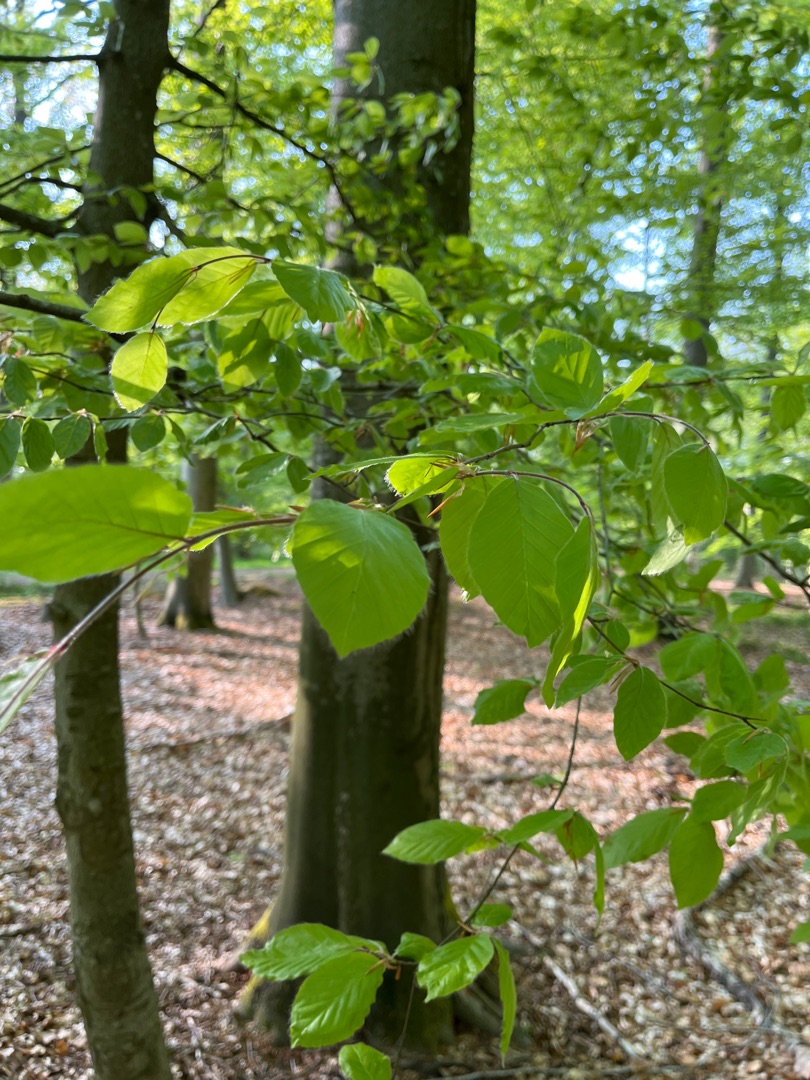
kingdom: Plantae
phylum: Tracheophyta
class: Magnoliopsida
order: Fagales
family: Fagaceae
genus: Fagus
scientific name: Fagus sylvatica
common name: Bøg
